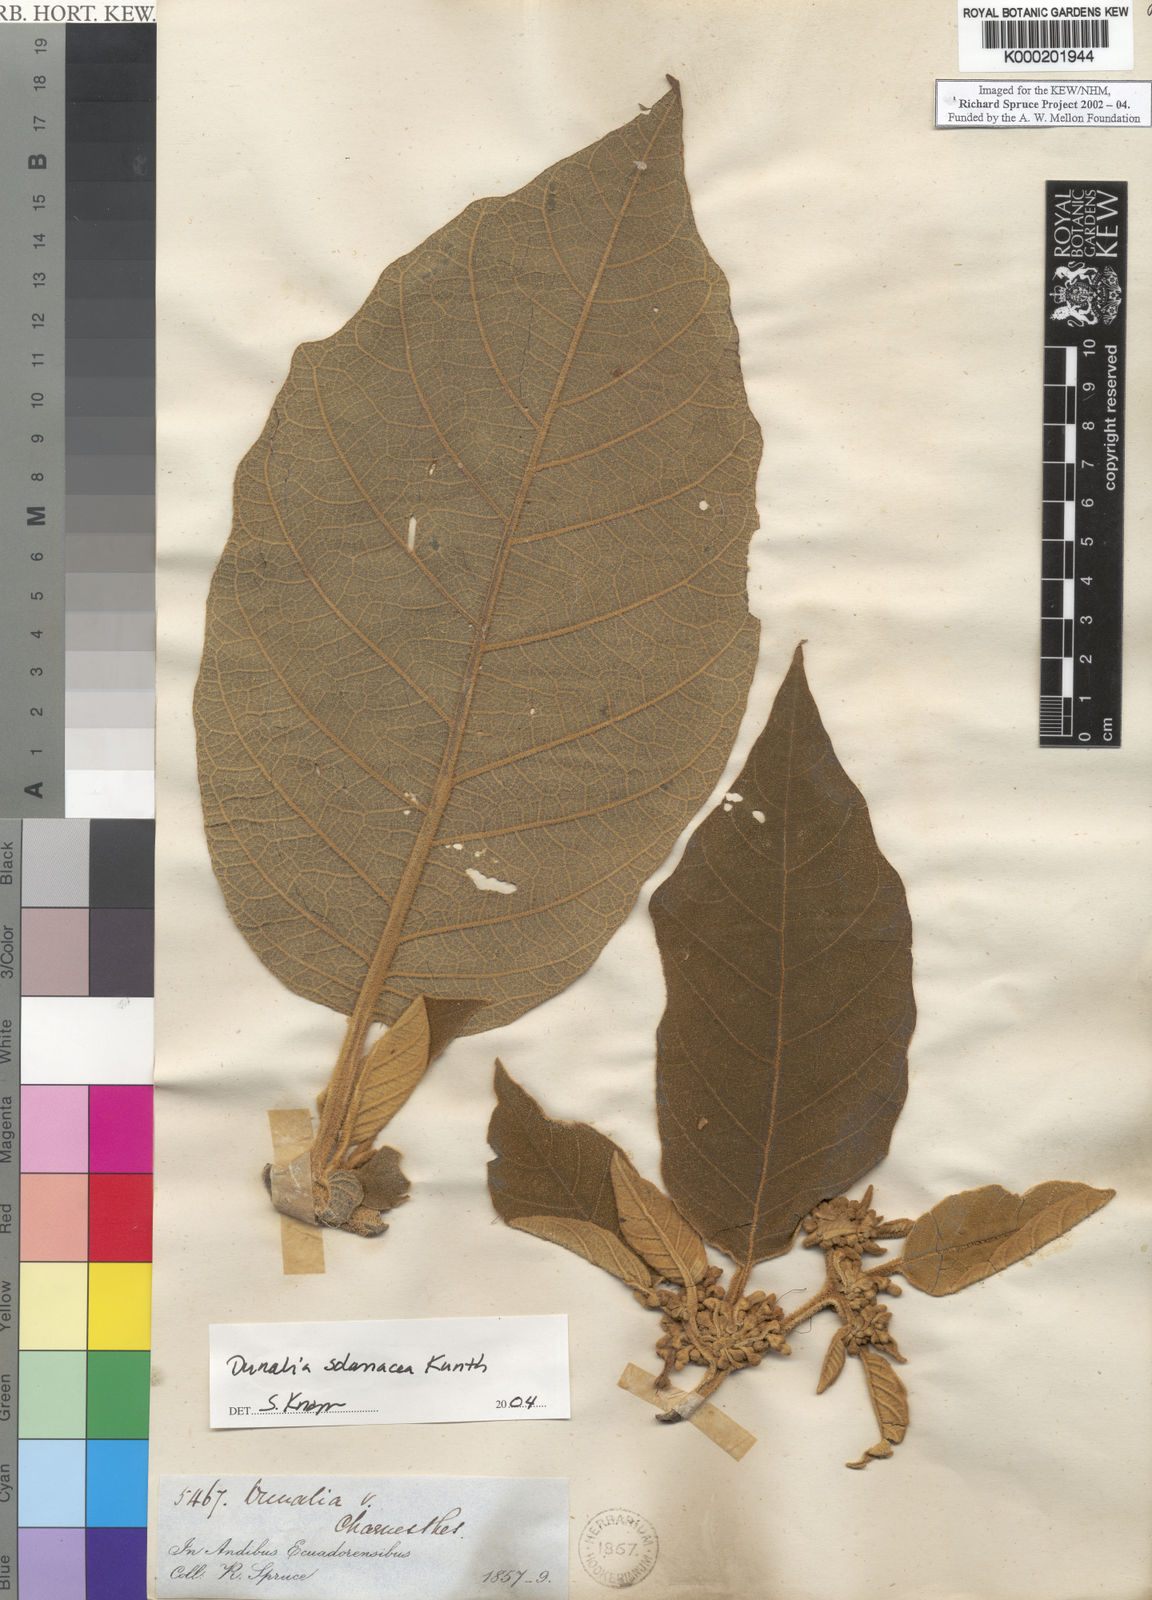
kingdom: Plantae
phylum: Tracheophyta
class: Magnoliopsida
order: Solanales
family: Solanaceae
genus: Saracha
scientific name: Saracha nigribaccata
